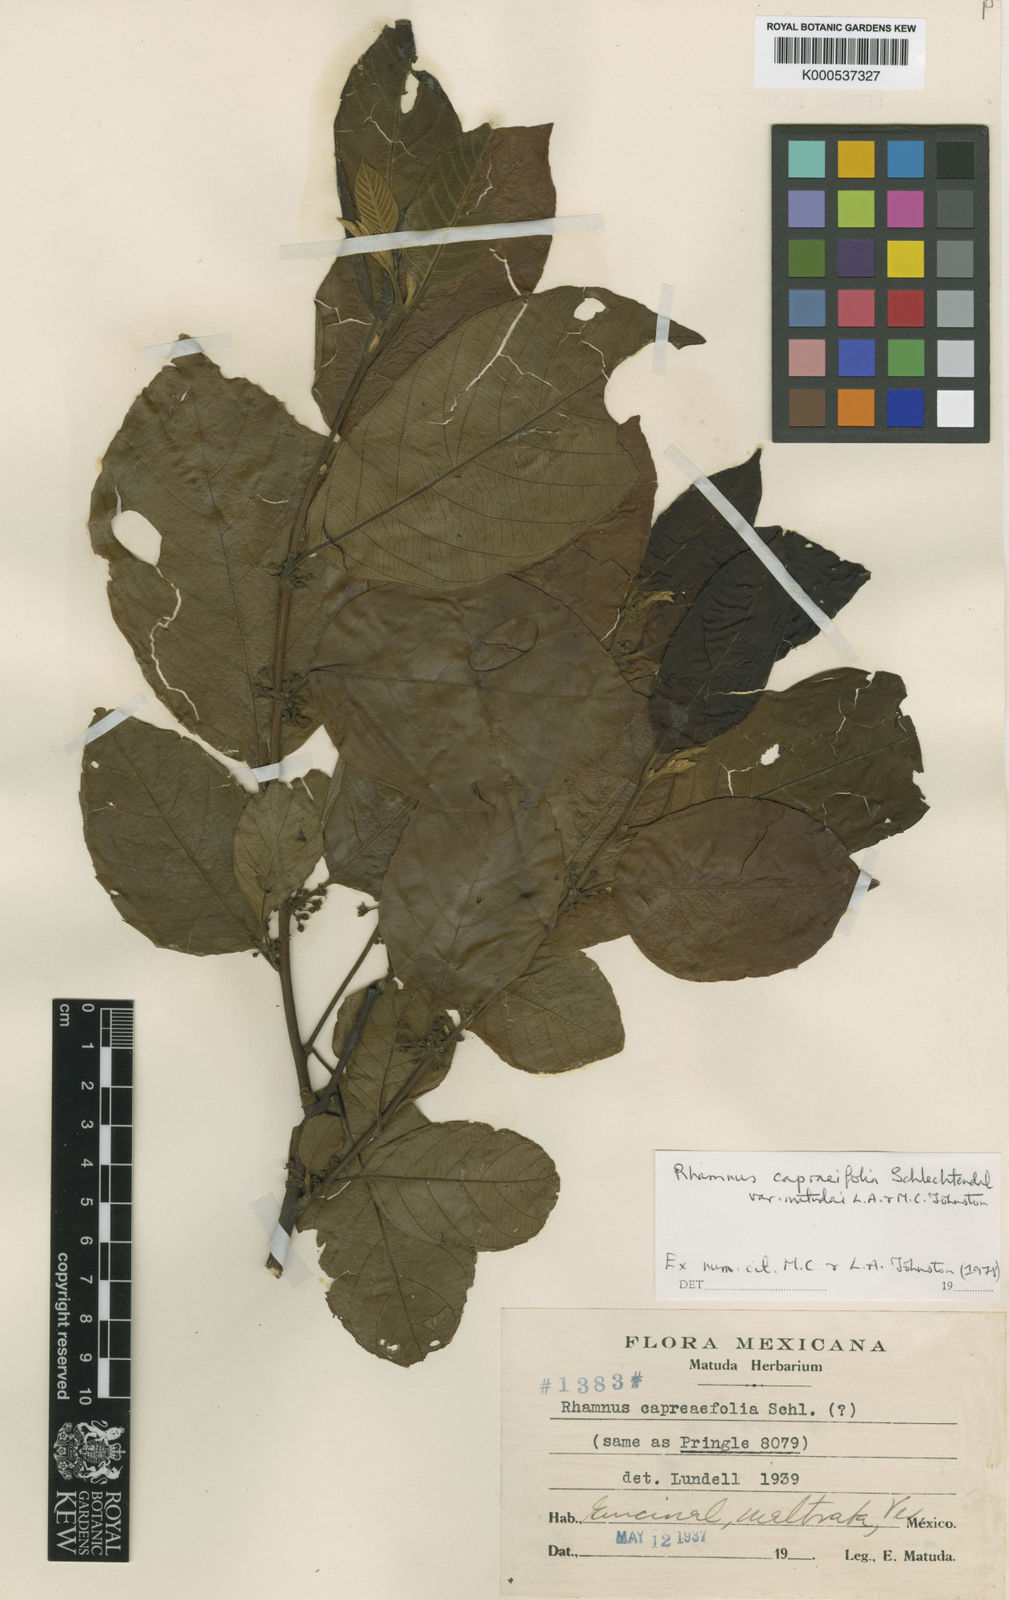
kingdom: Plantae
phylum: Tracheophyta
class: Magnoliopsida
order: Rosales
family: Rhamnaceae
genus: Frangula
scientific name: Frangula capreifolia
